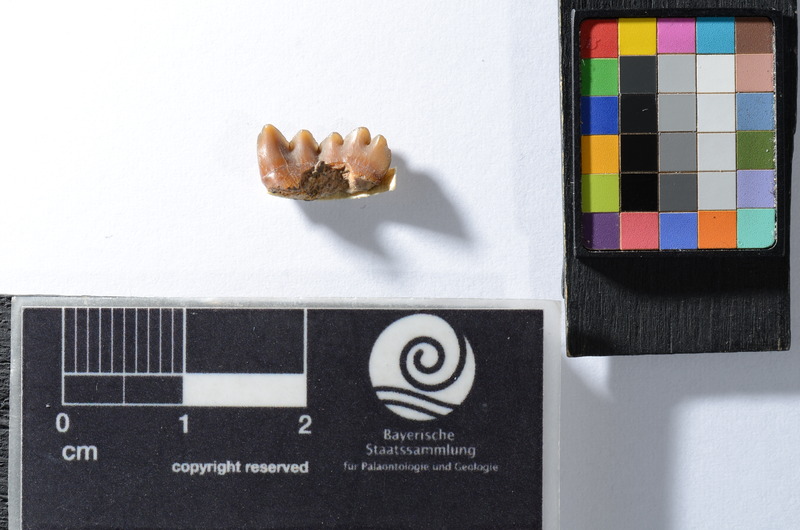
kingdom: Animalia
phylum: Chordata
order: Tetraodontiformes
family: Trigonodontidae
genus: Stephanodus
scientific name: Stephanodus
